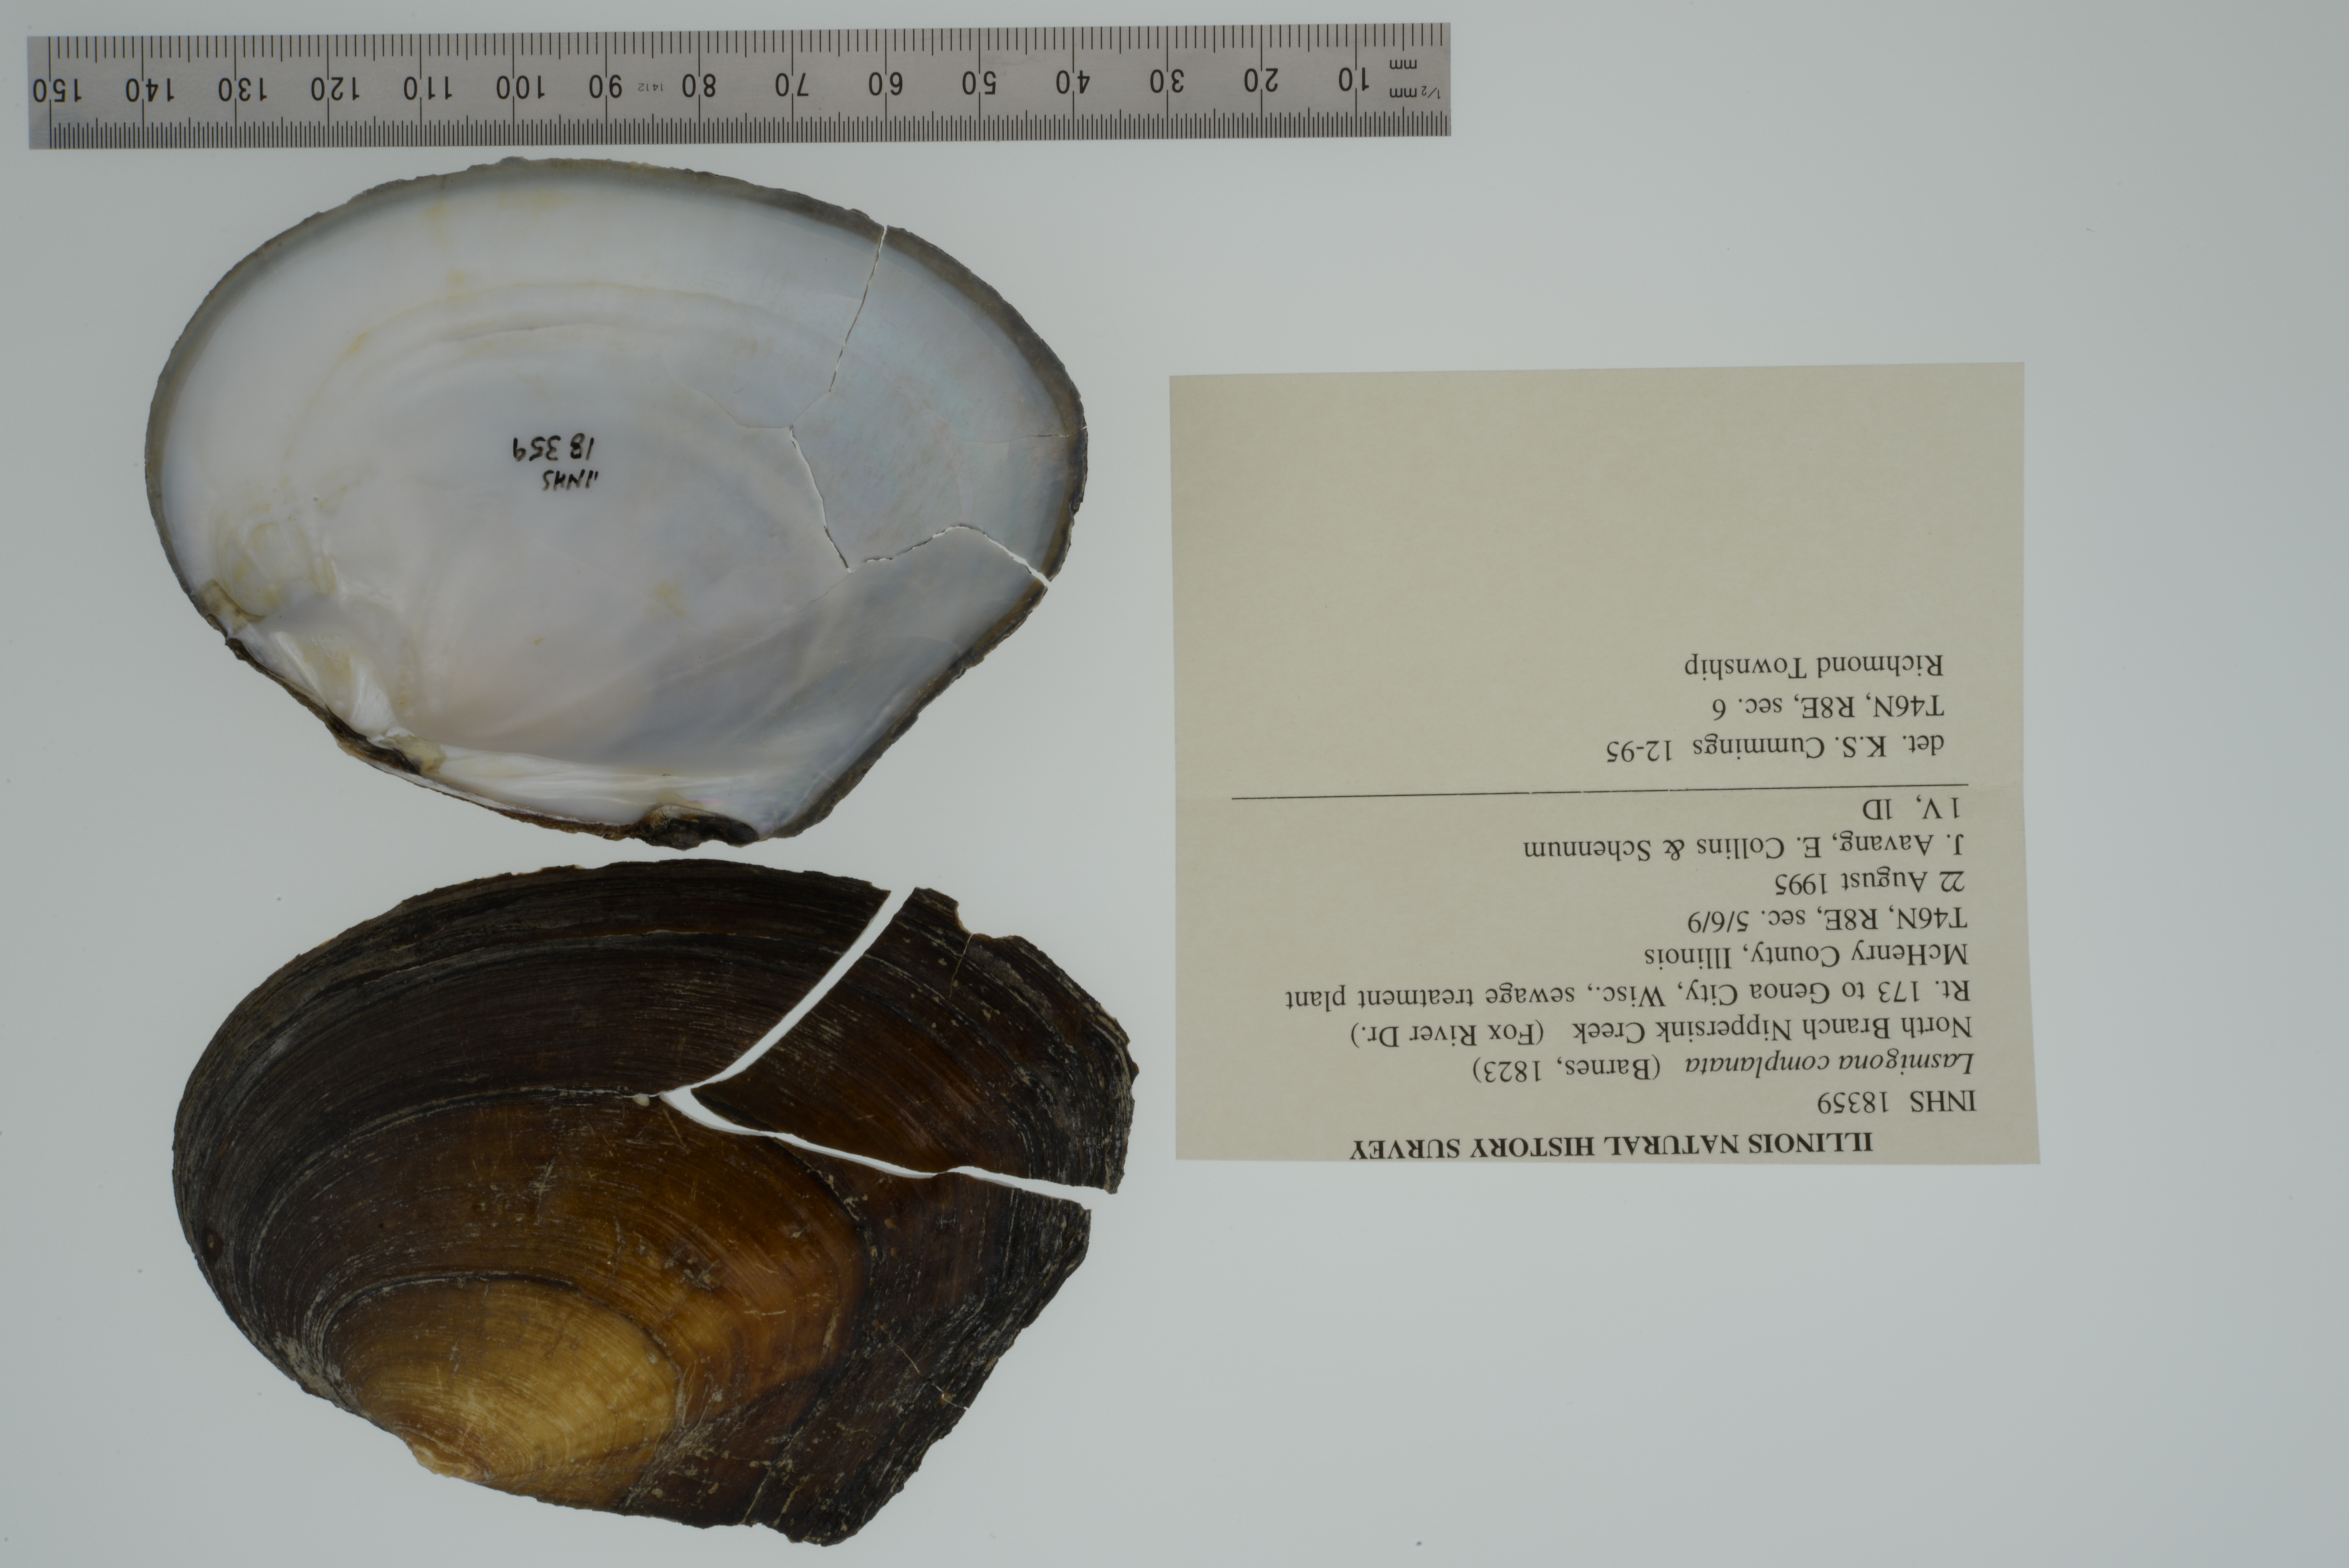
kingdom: Animalia
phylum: Mollusca
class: Bivalvia
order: Unionida
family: Unionidae
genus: Lasmigona
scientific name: Lasmigona complanata
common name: White heelsplitter
